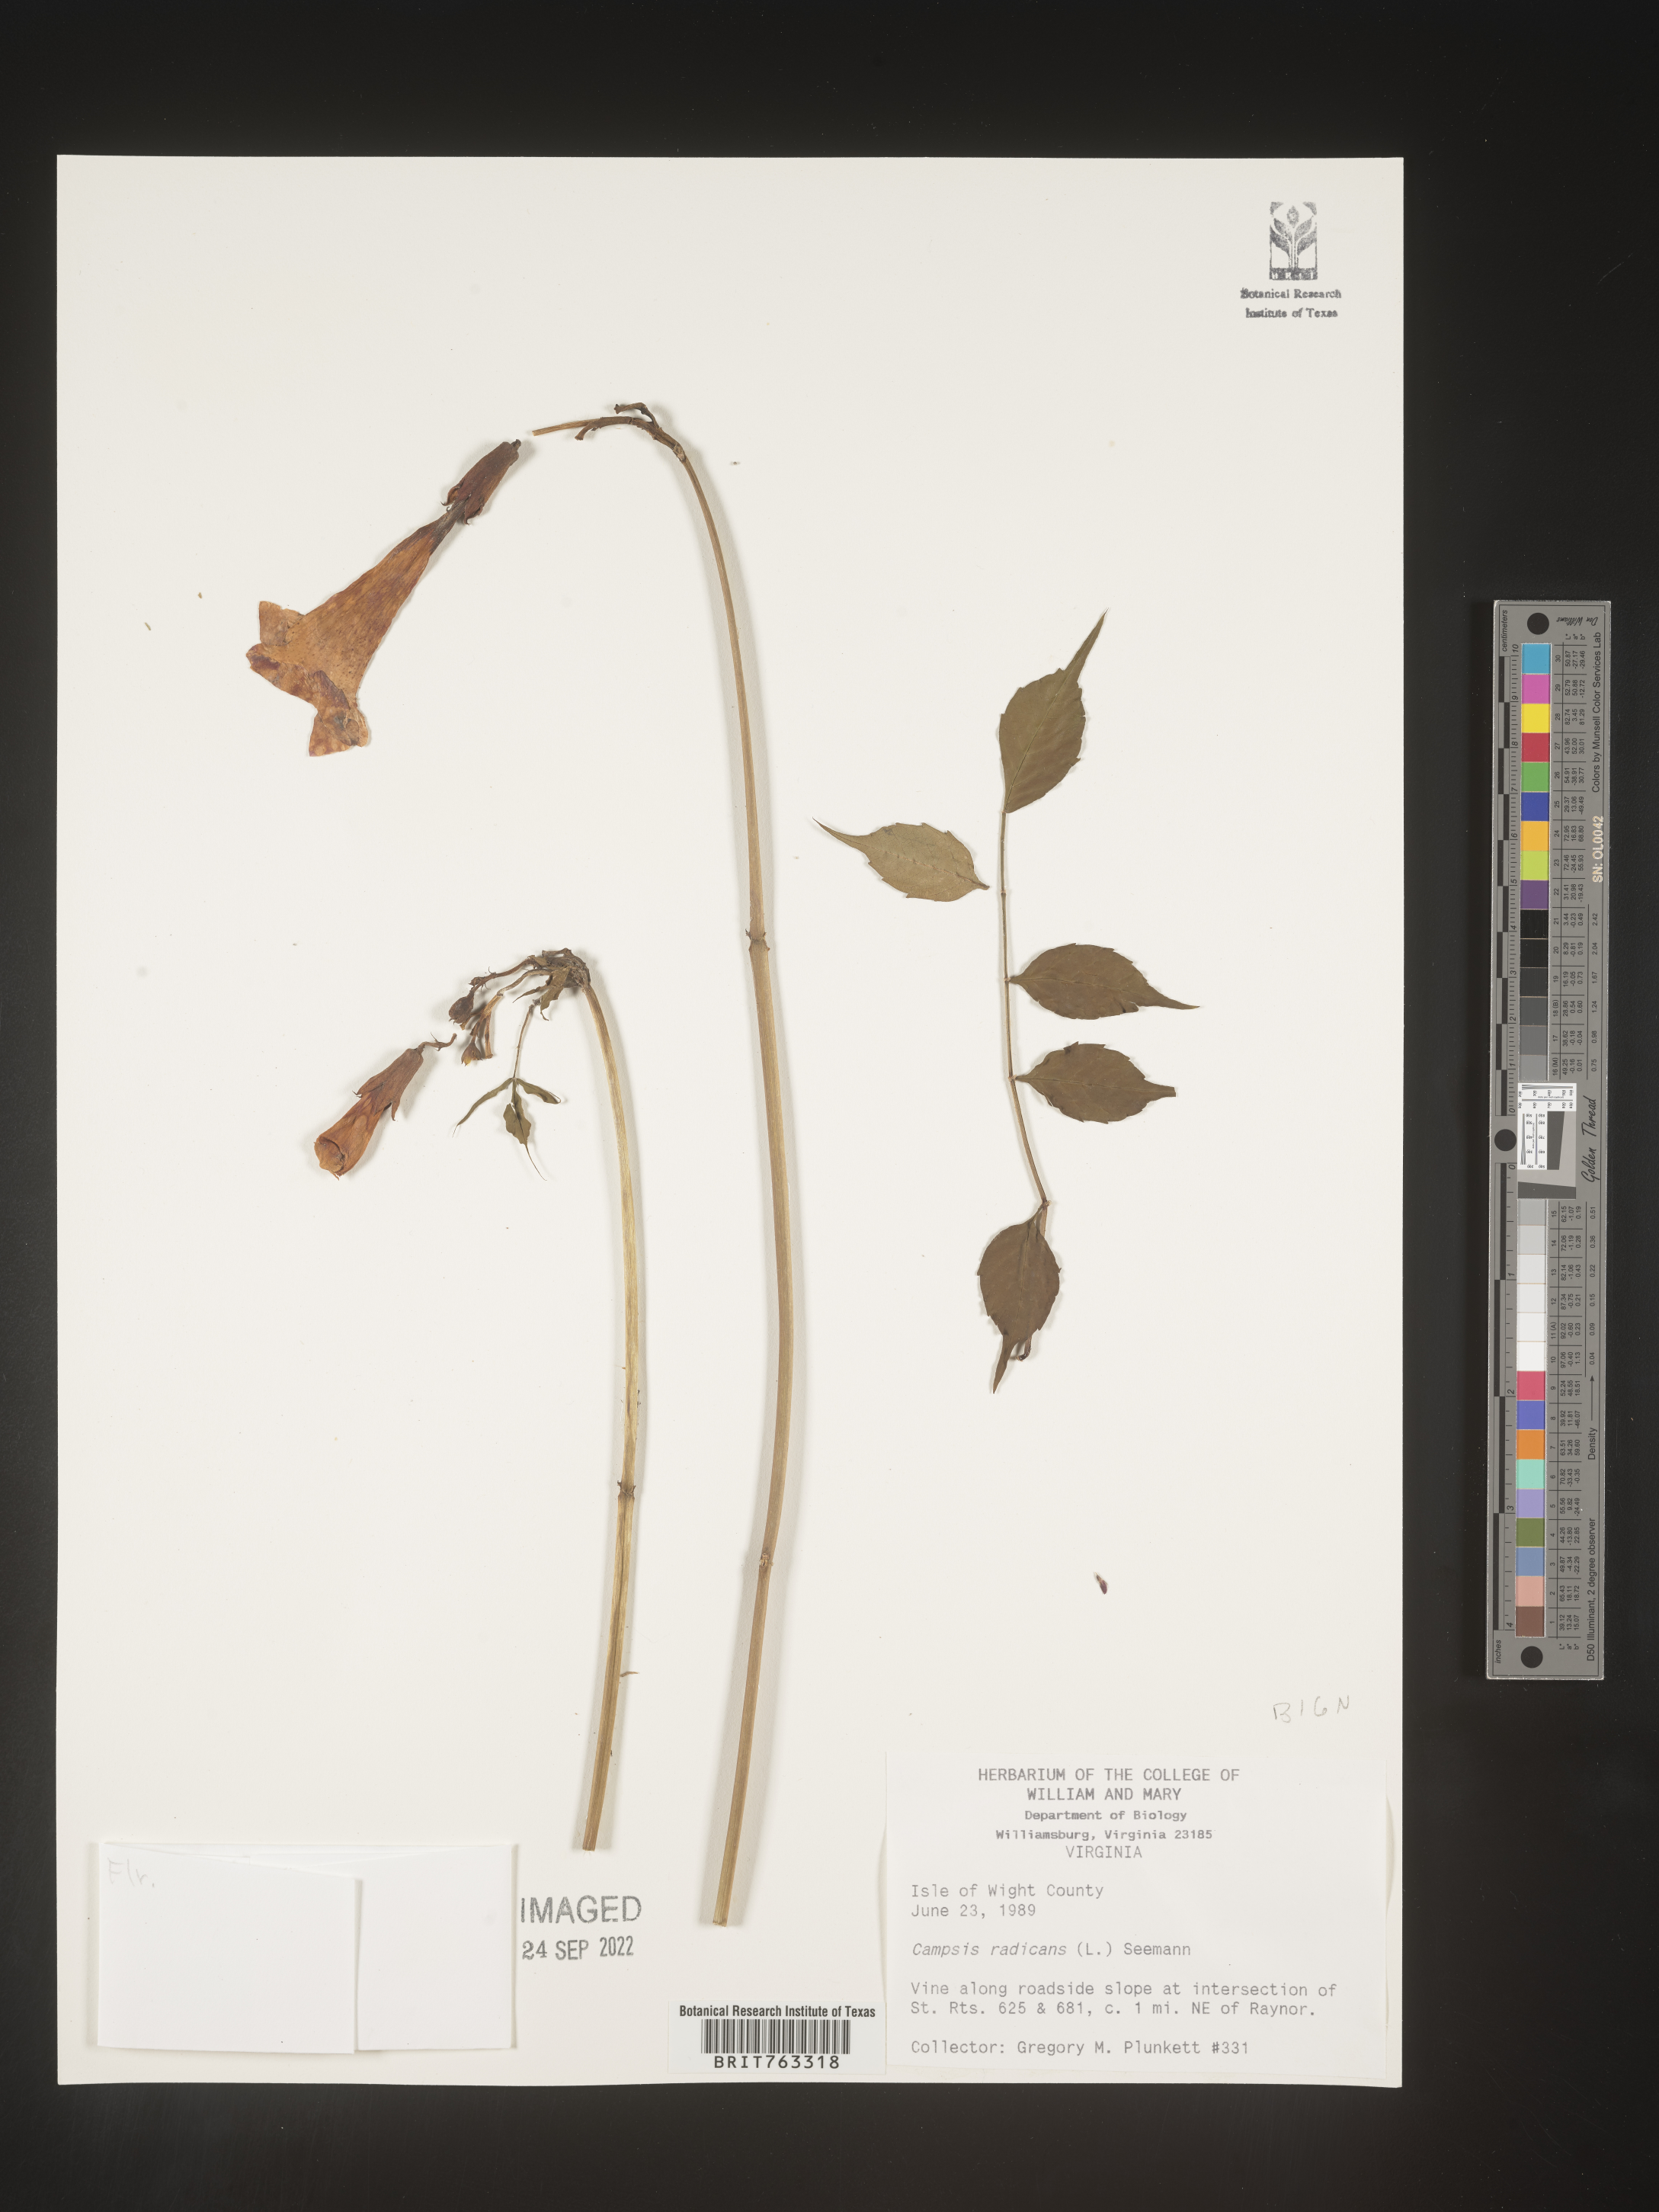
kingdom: Plantae
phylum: Tracheophyta
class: Magnoliopsida
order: Lamiales
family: Bignoniaceae
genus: Campsis
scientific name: Campsis radicans
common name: Trumpet-creeper
